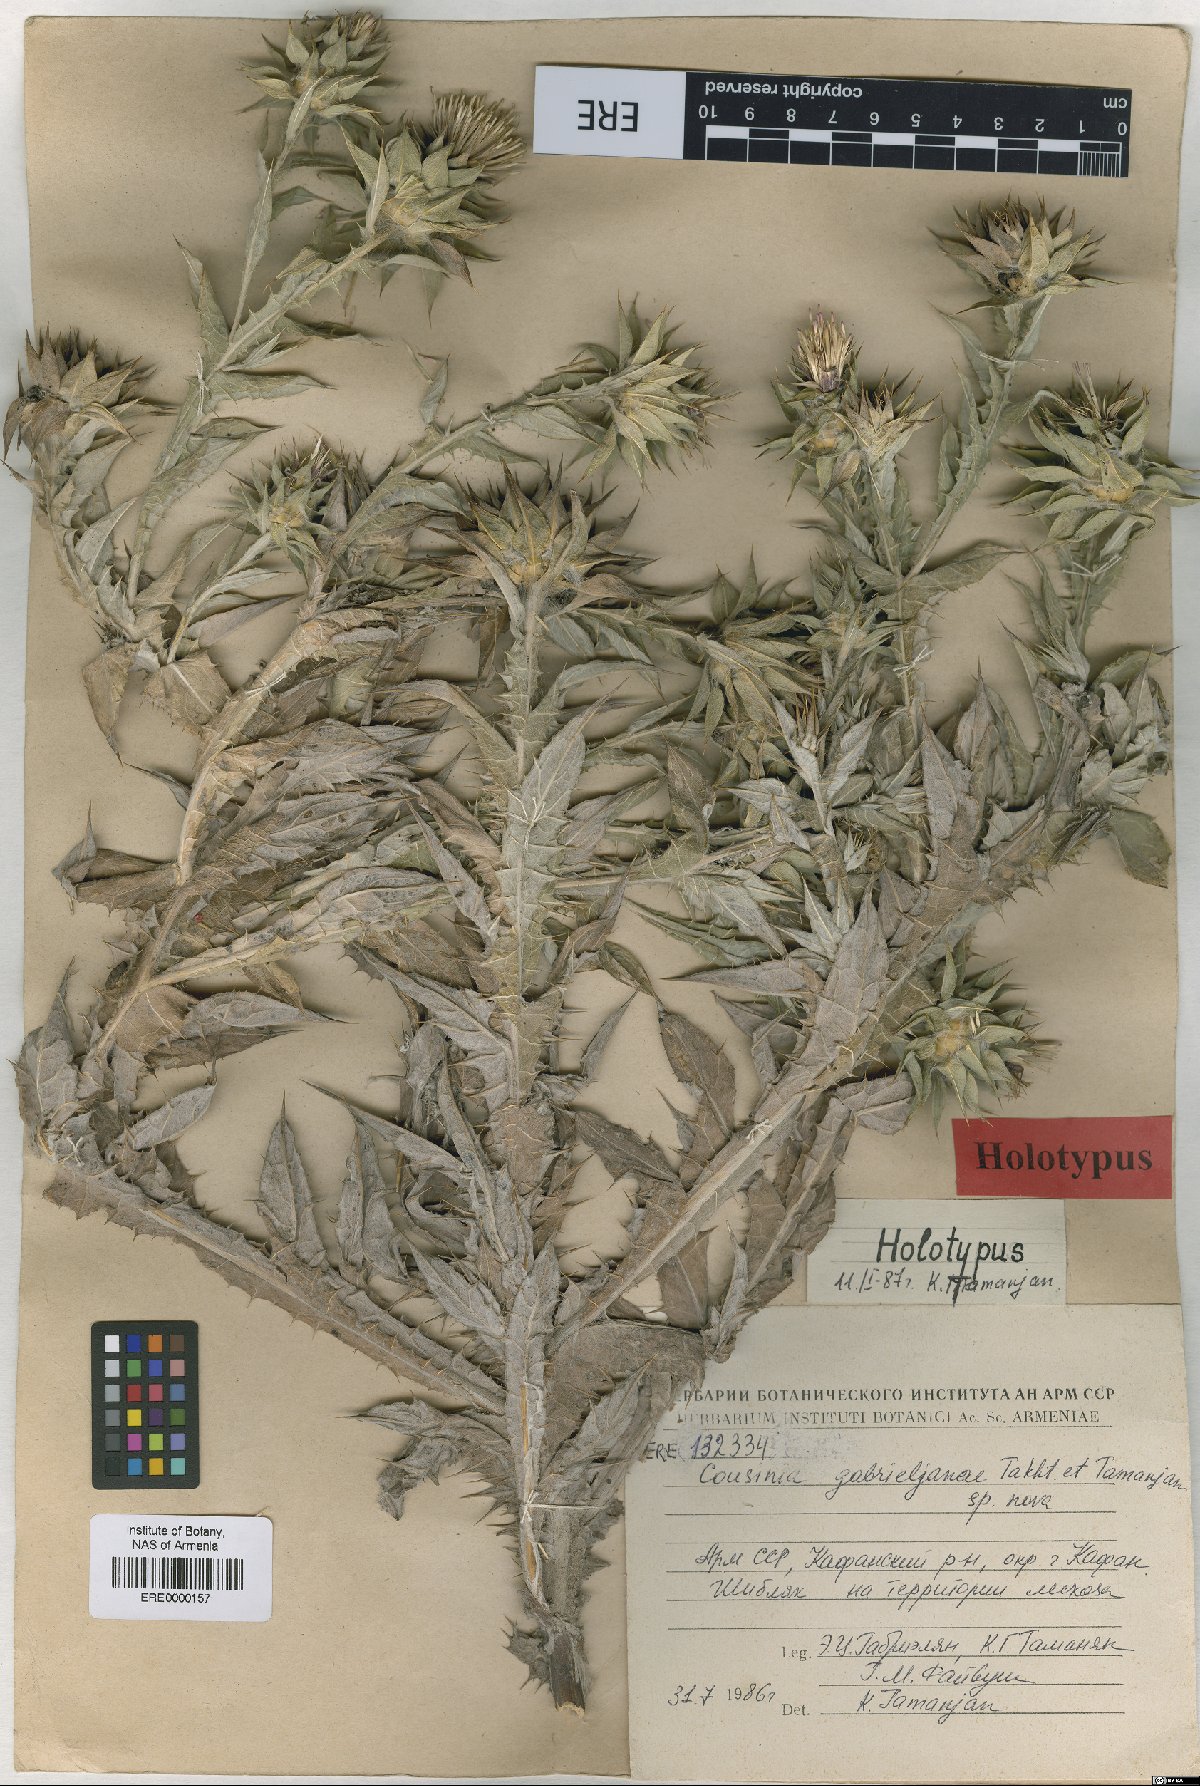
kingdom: Plantae
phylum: Tracheophyta
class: Magnoliopsida
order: Asterales
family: Asteraceae
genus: Cousinia
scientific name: Cousinia macrocephala
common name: Macrocephalous cousinia
